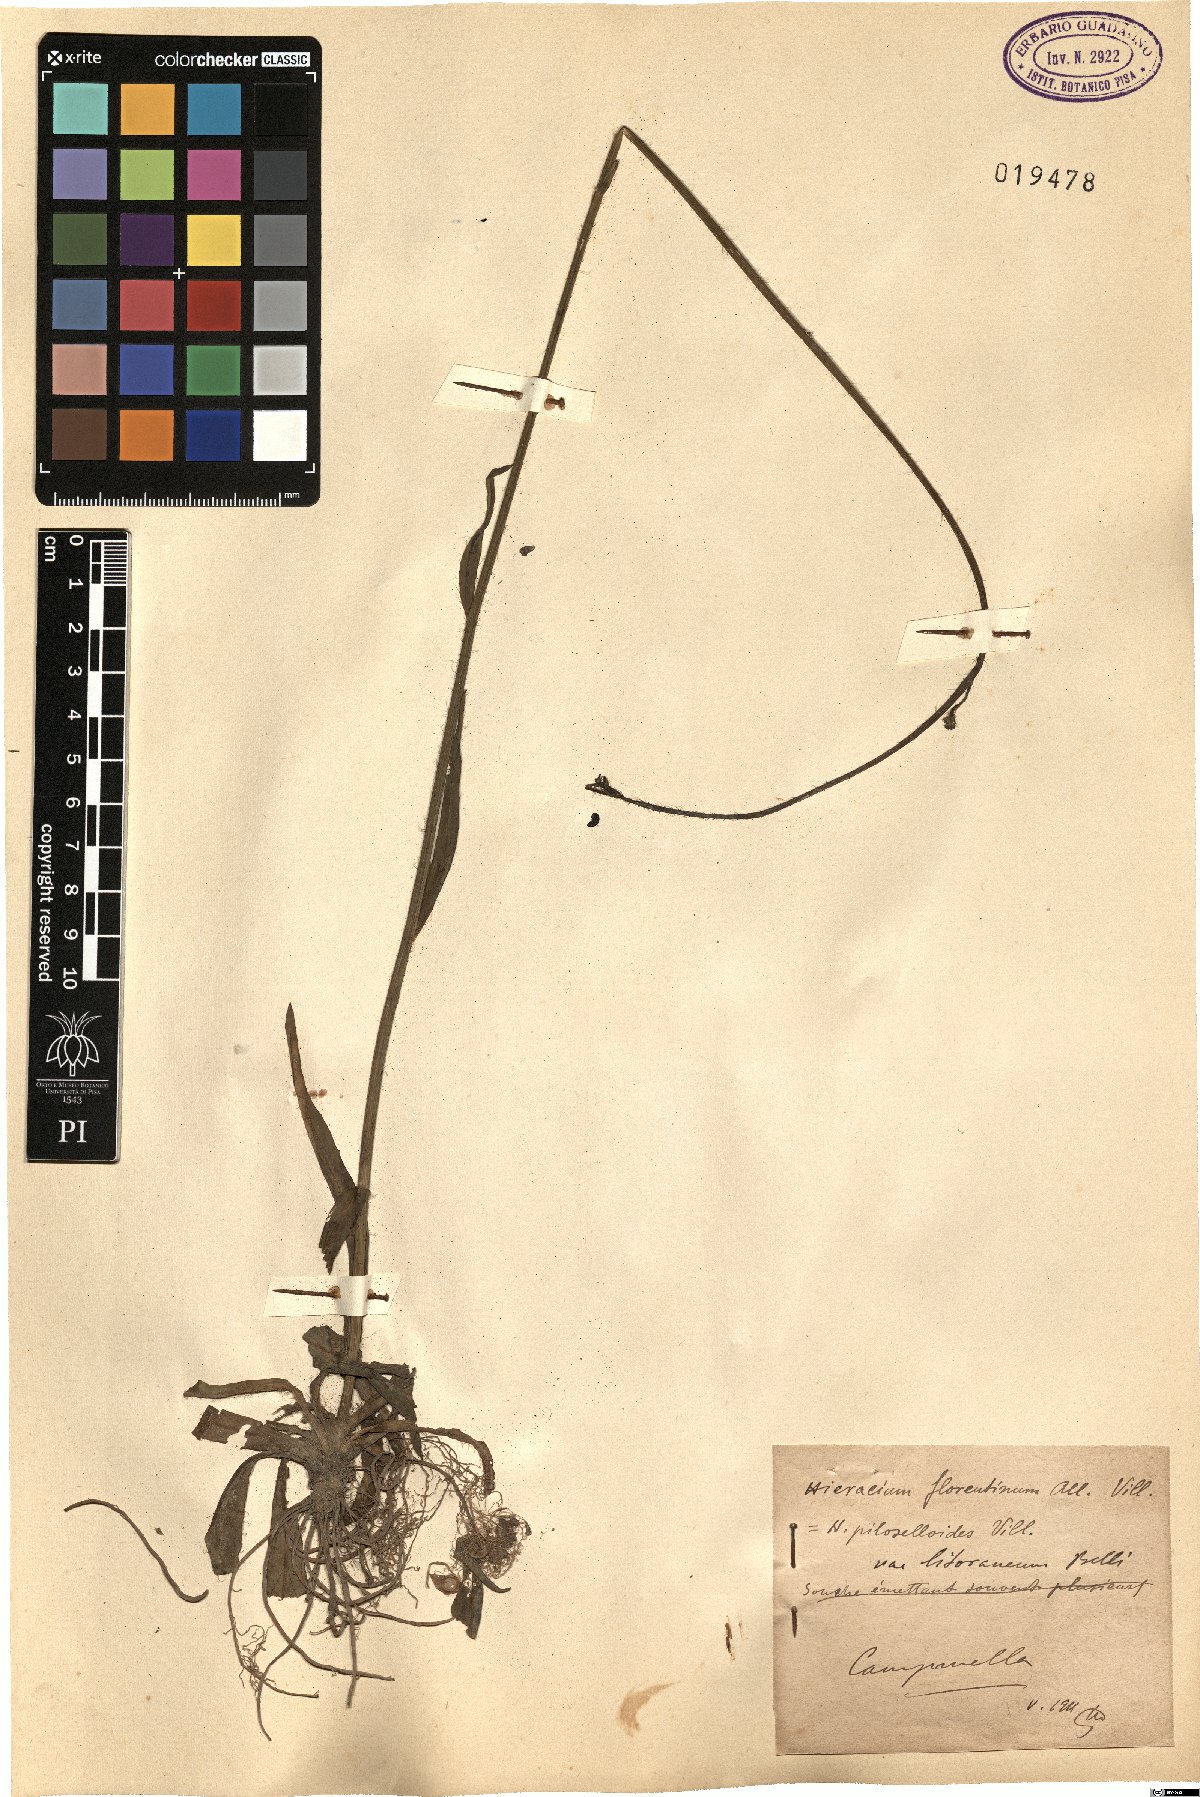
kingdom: Plantae
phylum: Tracheophyta
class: Magnoliopsida
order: Asterales
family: Asteraceae
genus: Pilosella
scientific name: Pilosella piloselloides
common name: Glaucous king-devil
